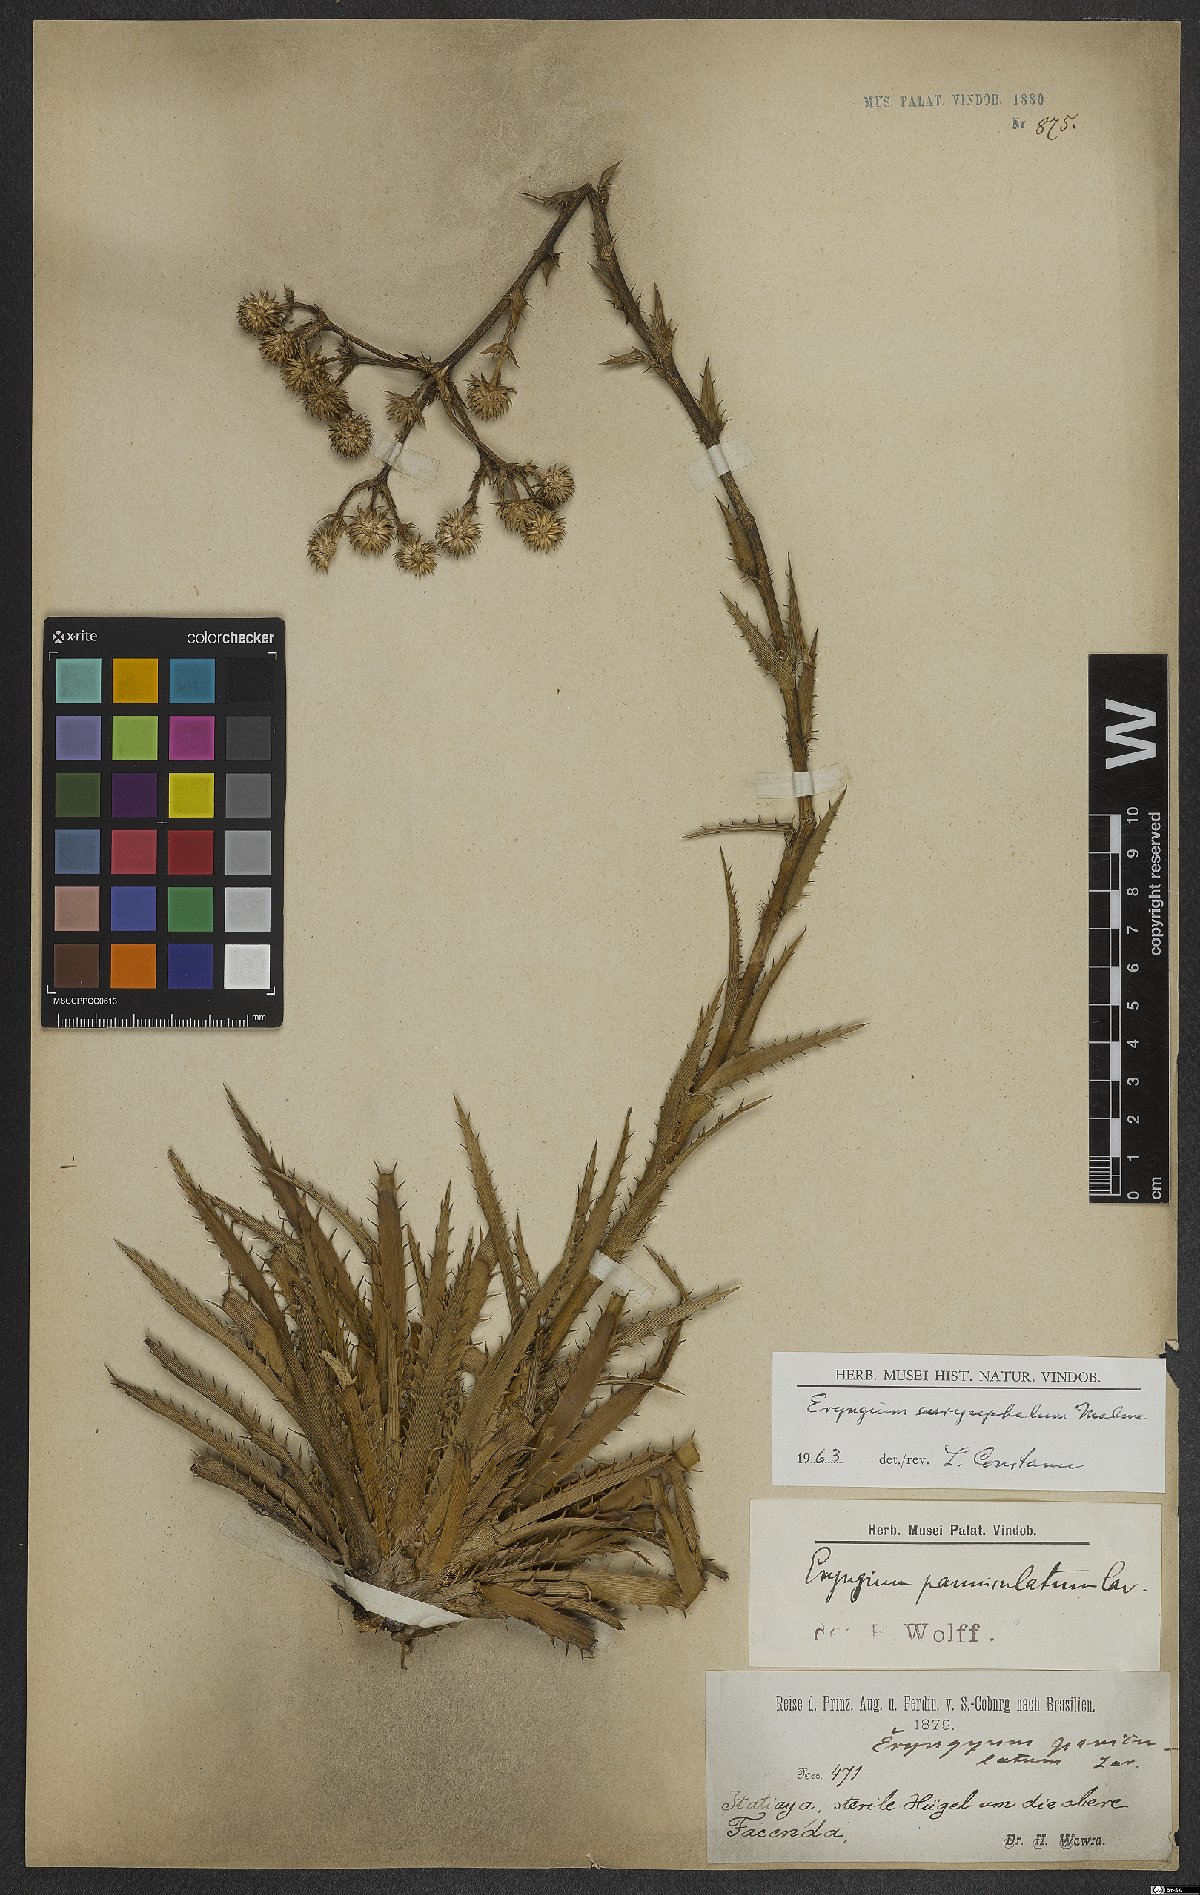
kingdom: Plantae
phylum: Tracheophyta
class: Magnoliopsida
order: Apiales
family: Apiaceae
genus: Eryngium
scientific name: Eryngium eurycephalum
